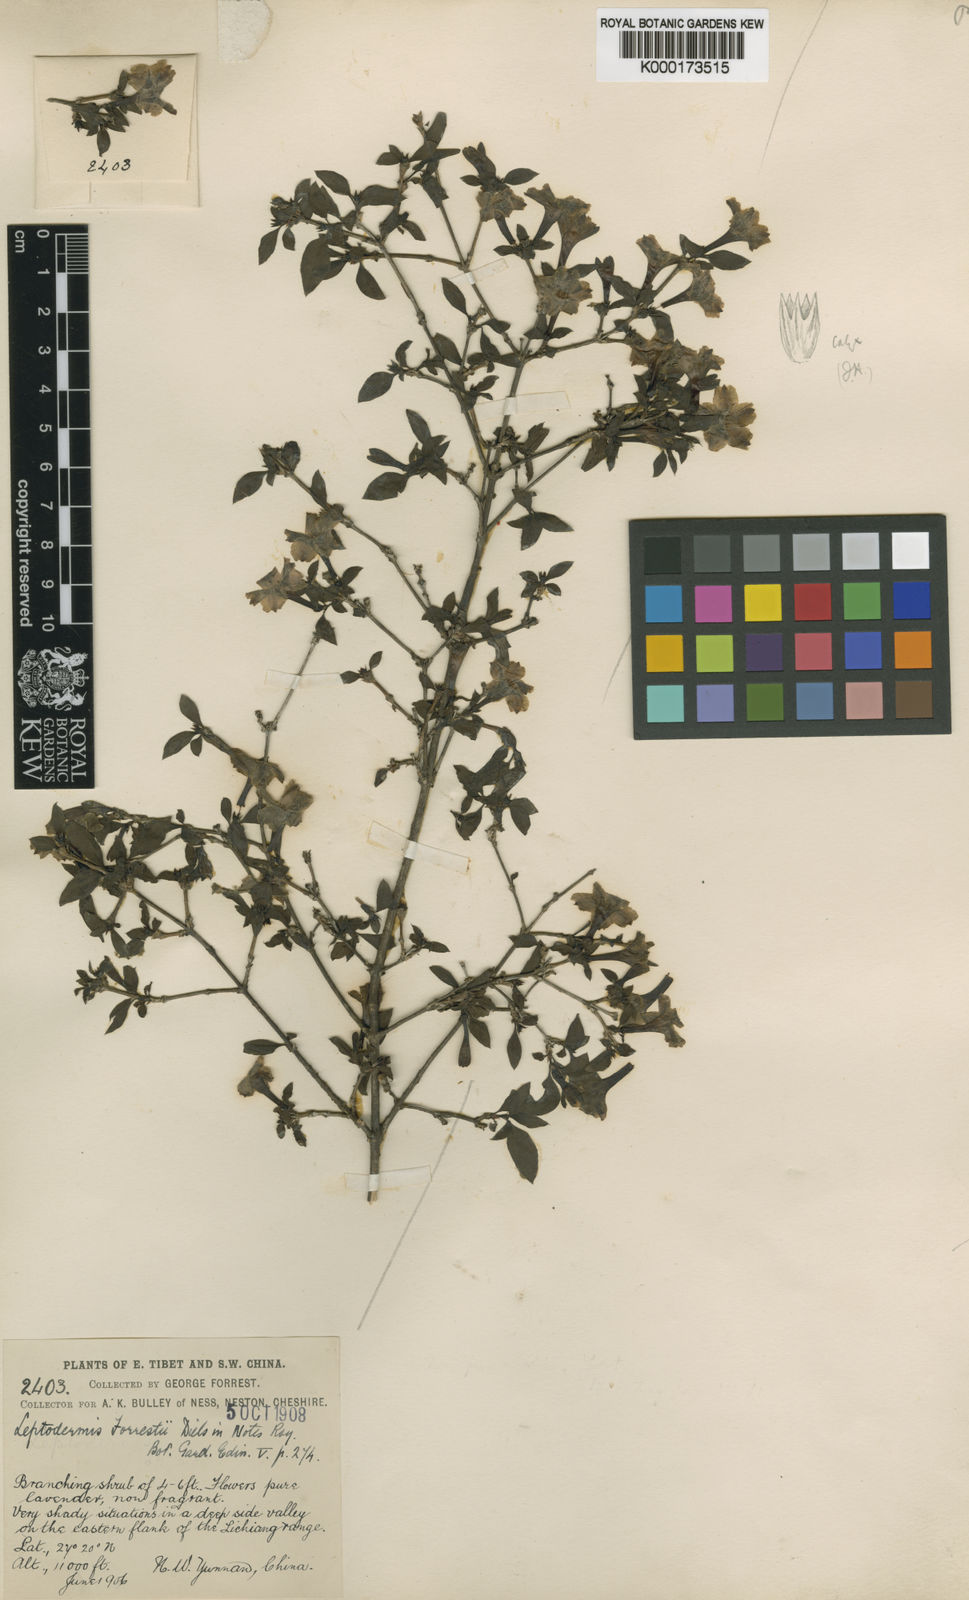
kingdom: Plantae
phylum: Tracheophyta
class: Magnoliopsida
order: Gentianales
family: Rubiaceae
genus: Leptodermis
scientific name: Leptodermis forrestii
